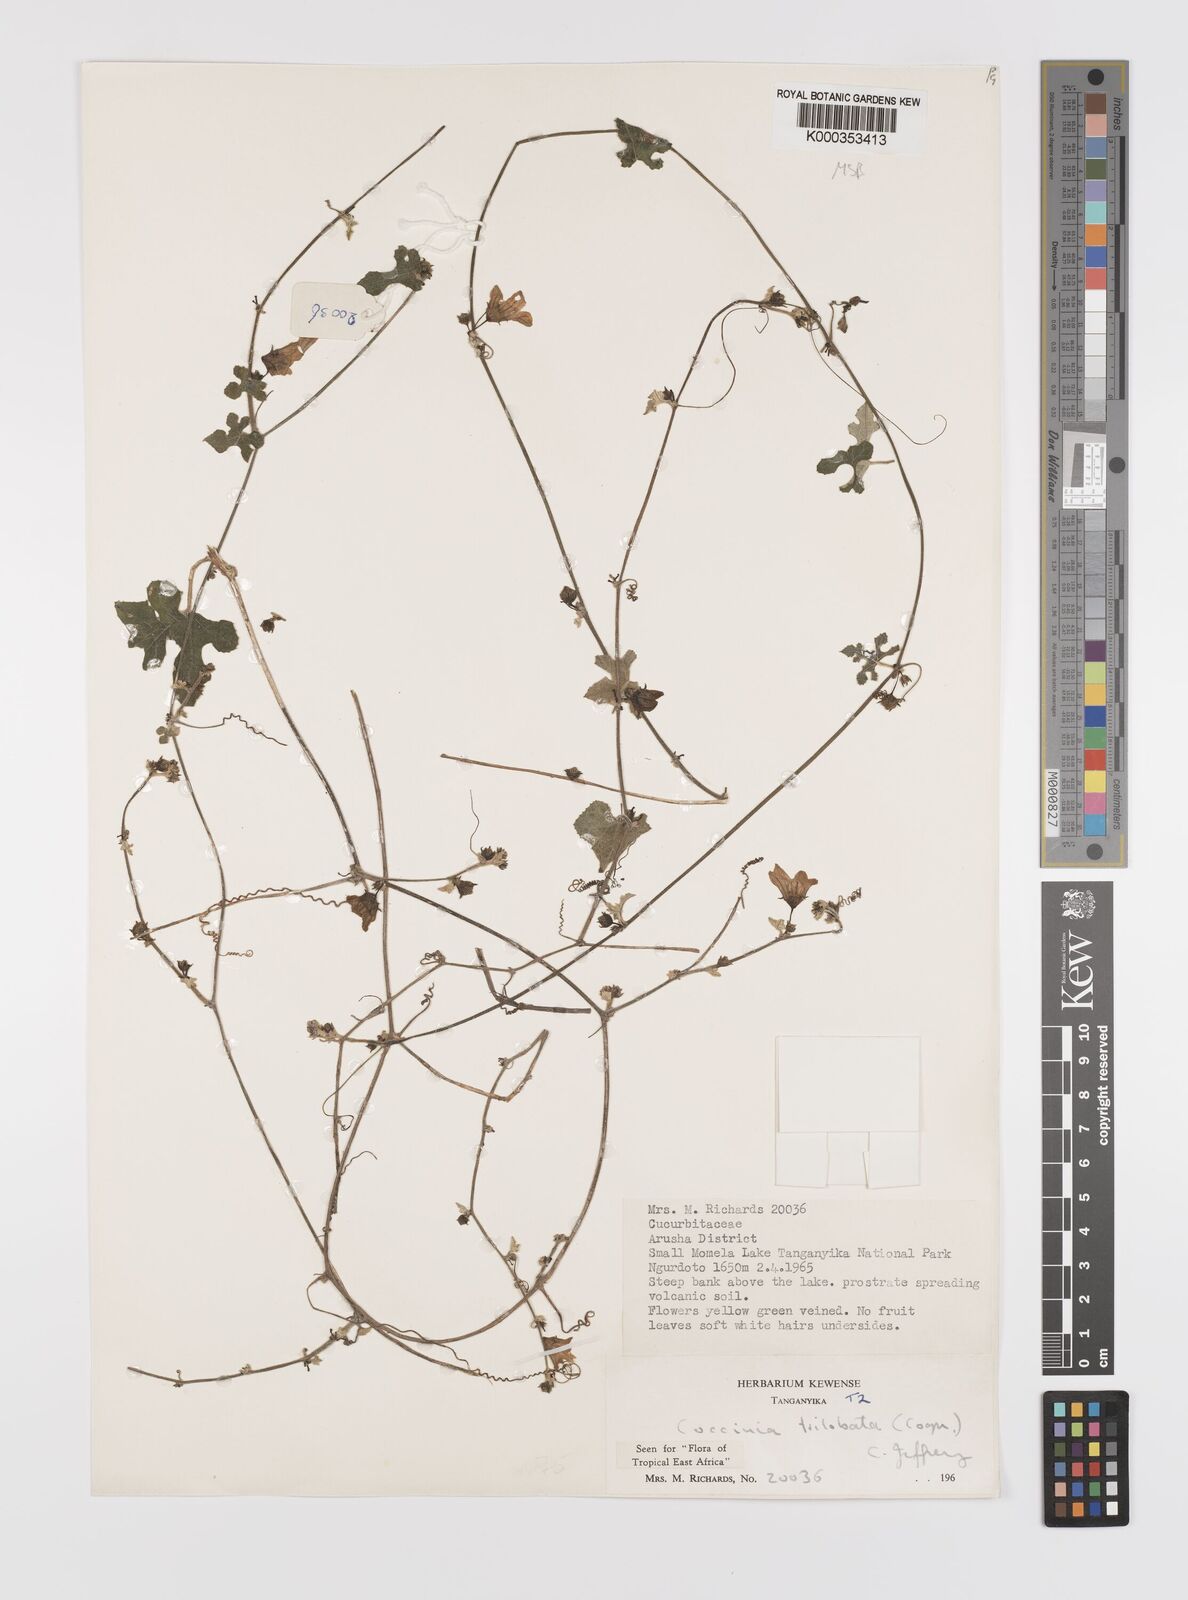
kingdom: Plantae
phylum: Tracheophyta
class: Magnoliopsida
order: Cucurbitales
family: Cucurbitaceae
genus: Coccinia
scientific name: Coccinia trilobata
